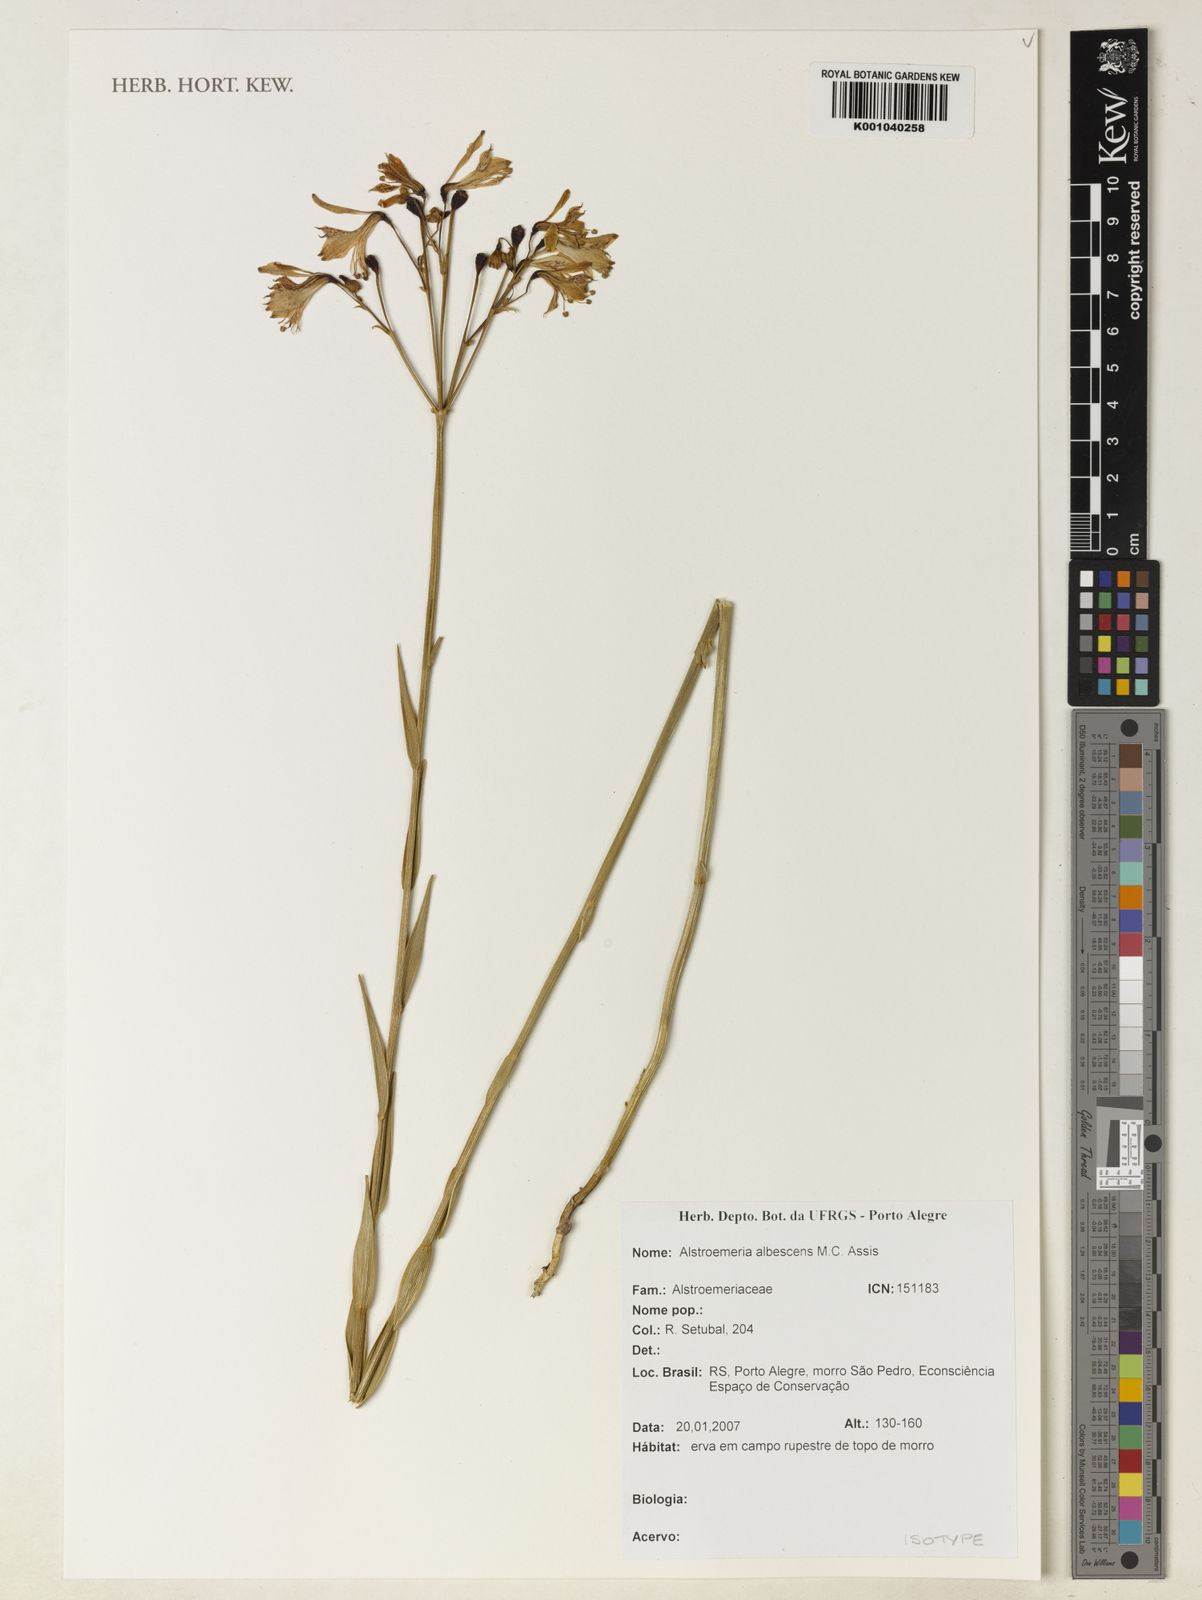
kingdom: Plantae
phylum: Tracheophyta
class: Liliopsida
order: Liliales
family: Alstroemeriaceae
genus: Alstroemeria
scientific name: Alstroemeria albescens
